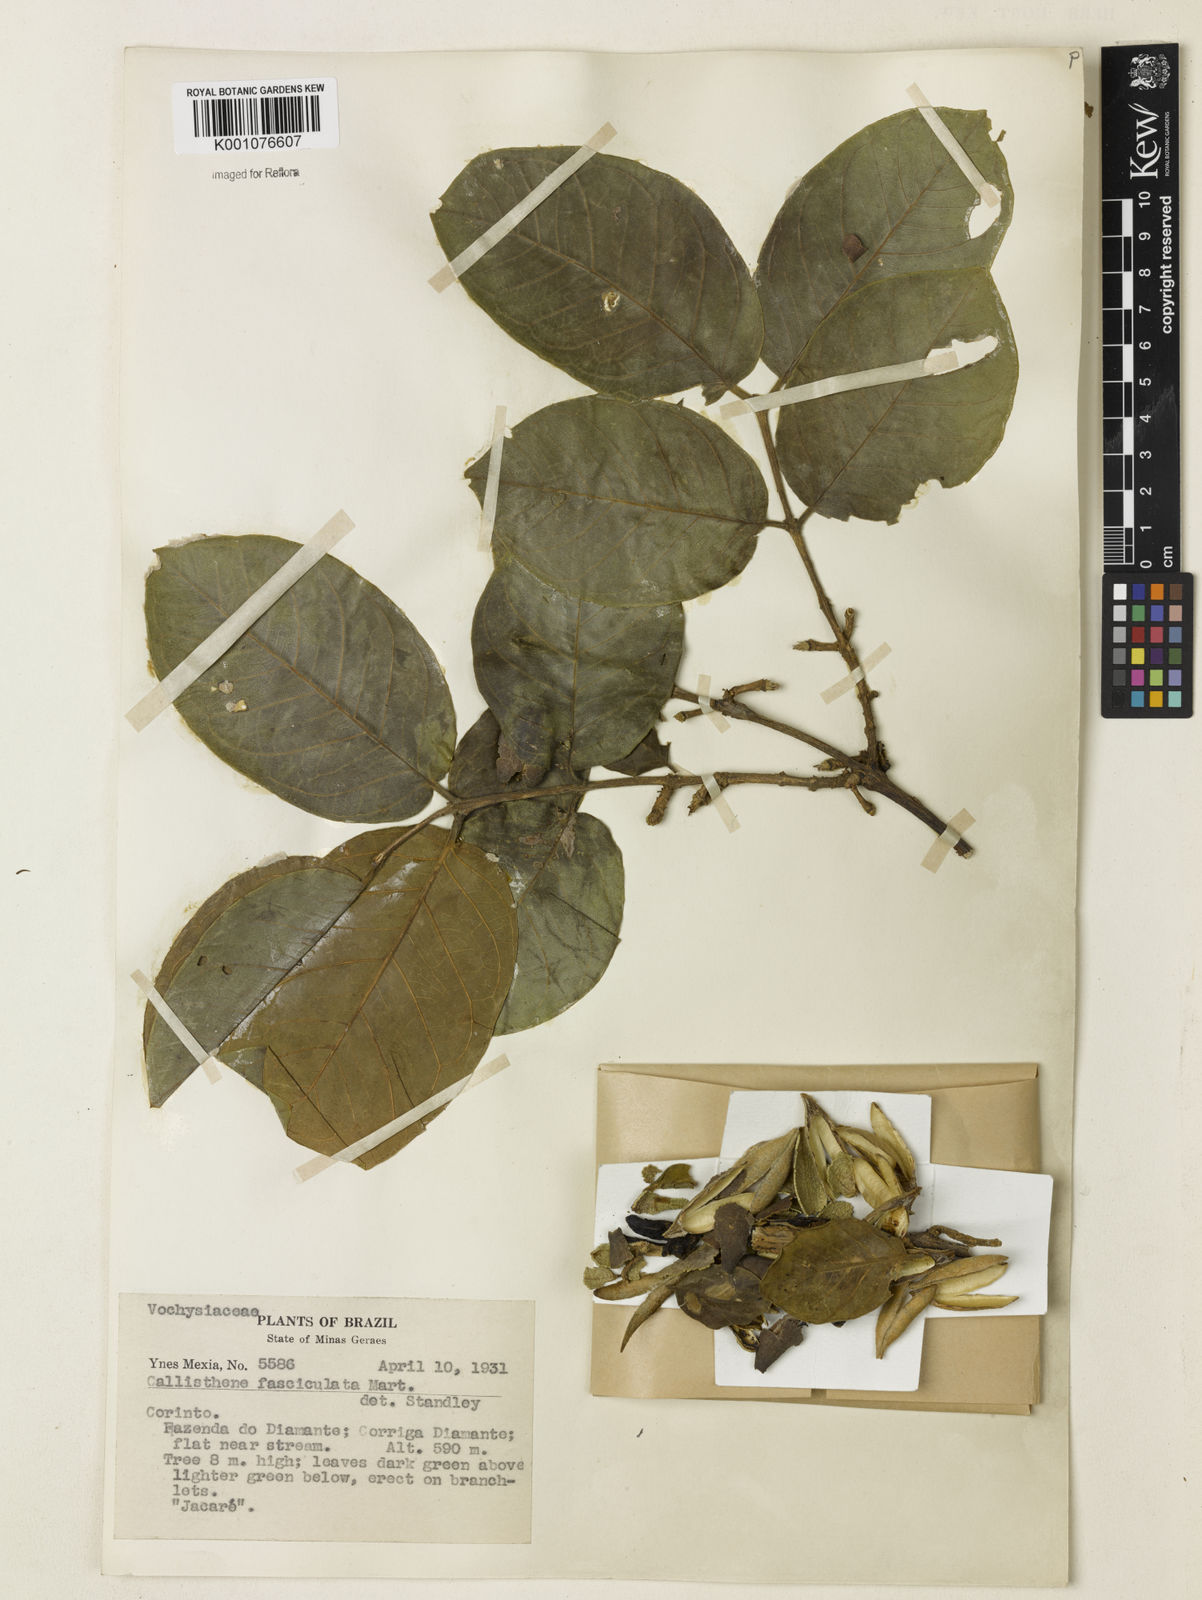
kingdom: Plantae
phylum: Tracheophyta
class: Magnoliopsida
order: Myrtales
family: Vochysiaceae
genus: Callisthene
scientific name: Callisthene fasciculata
